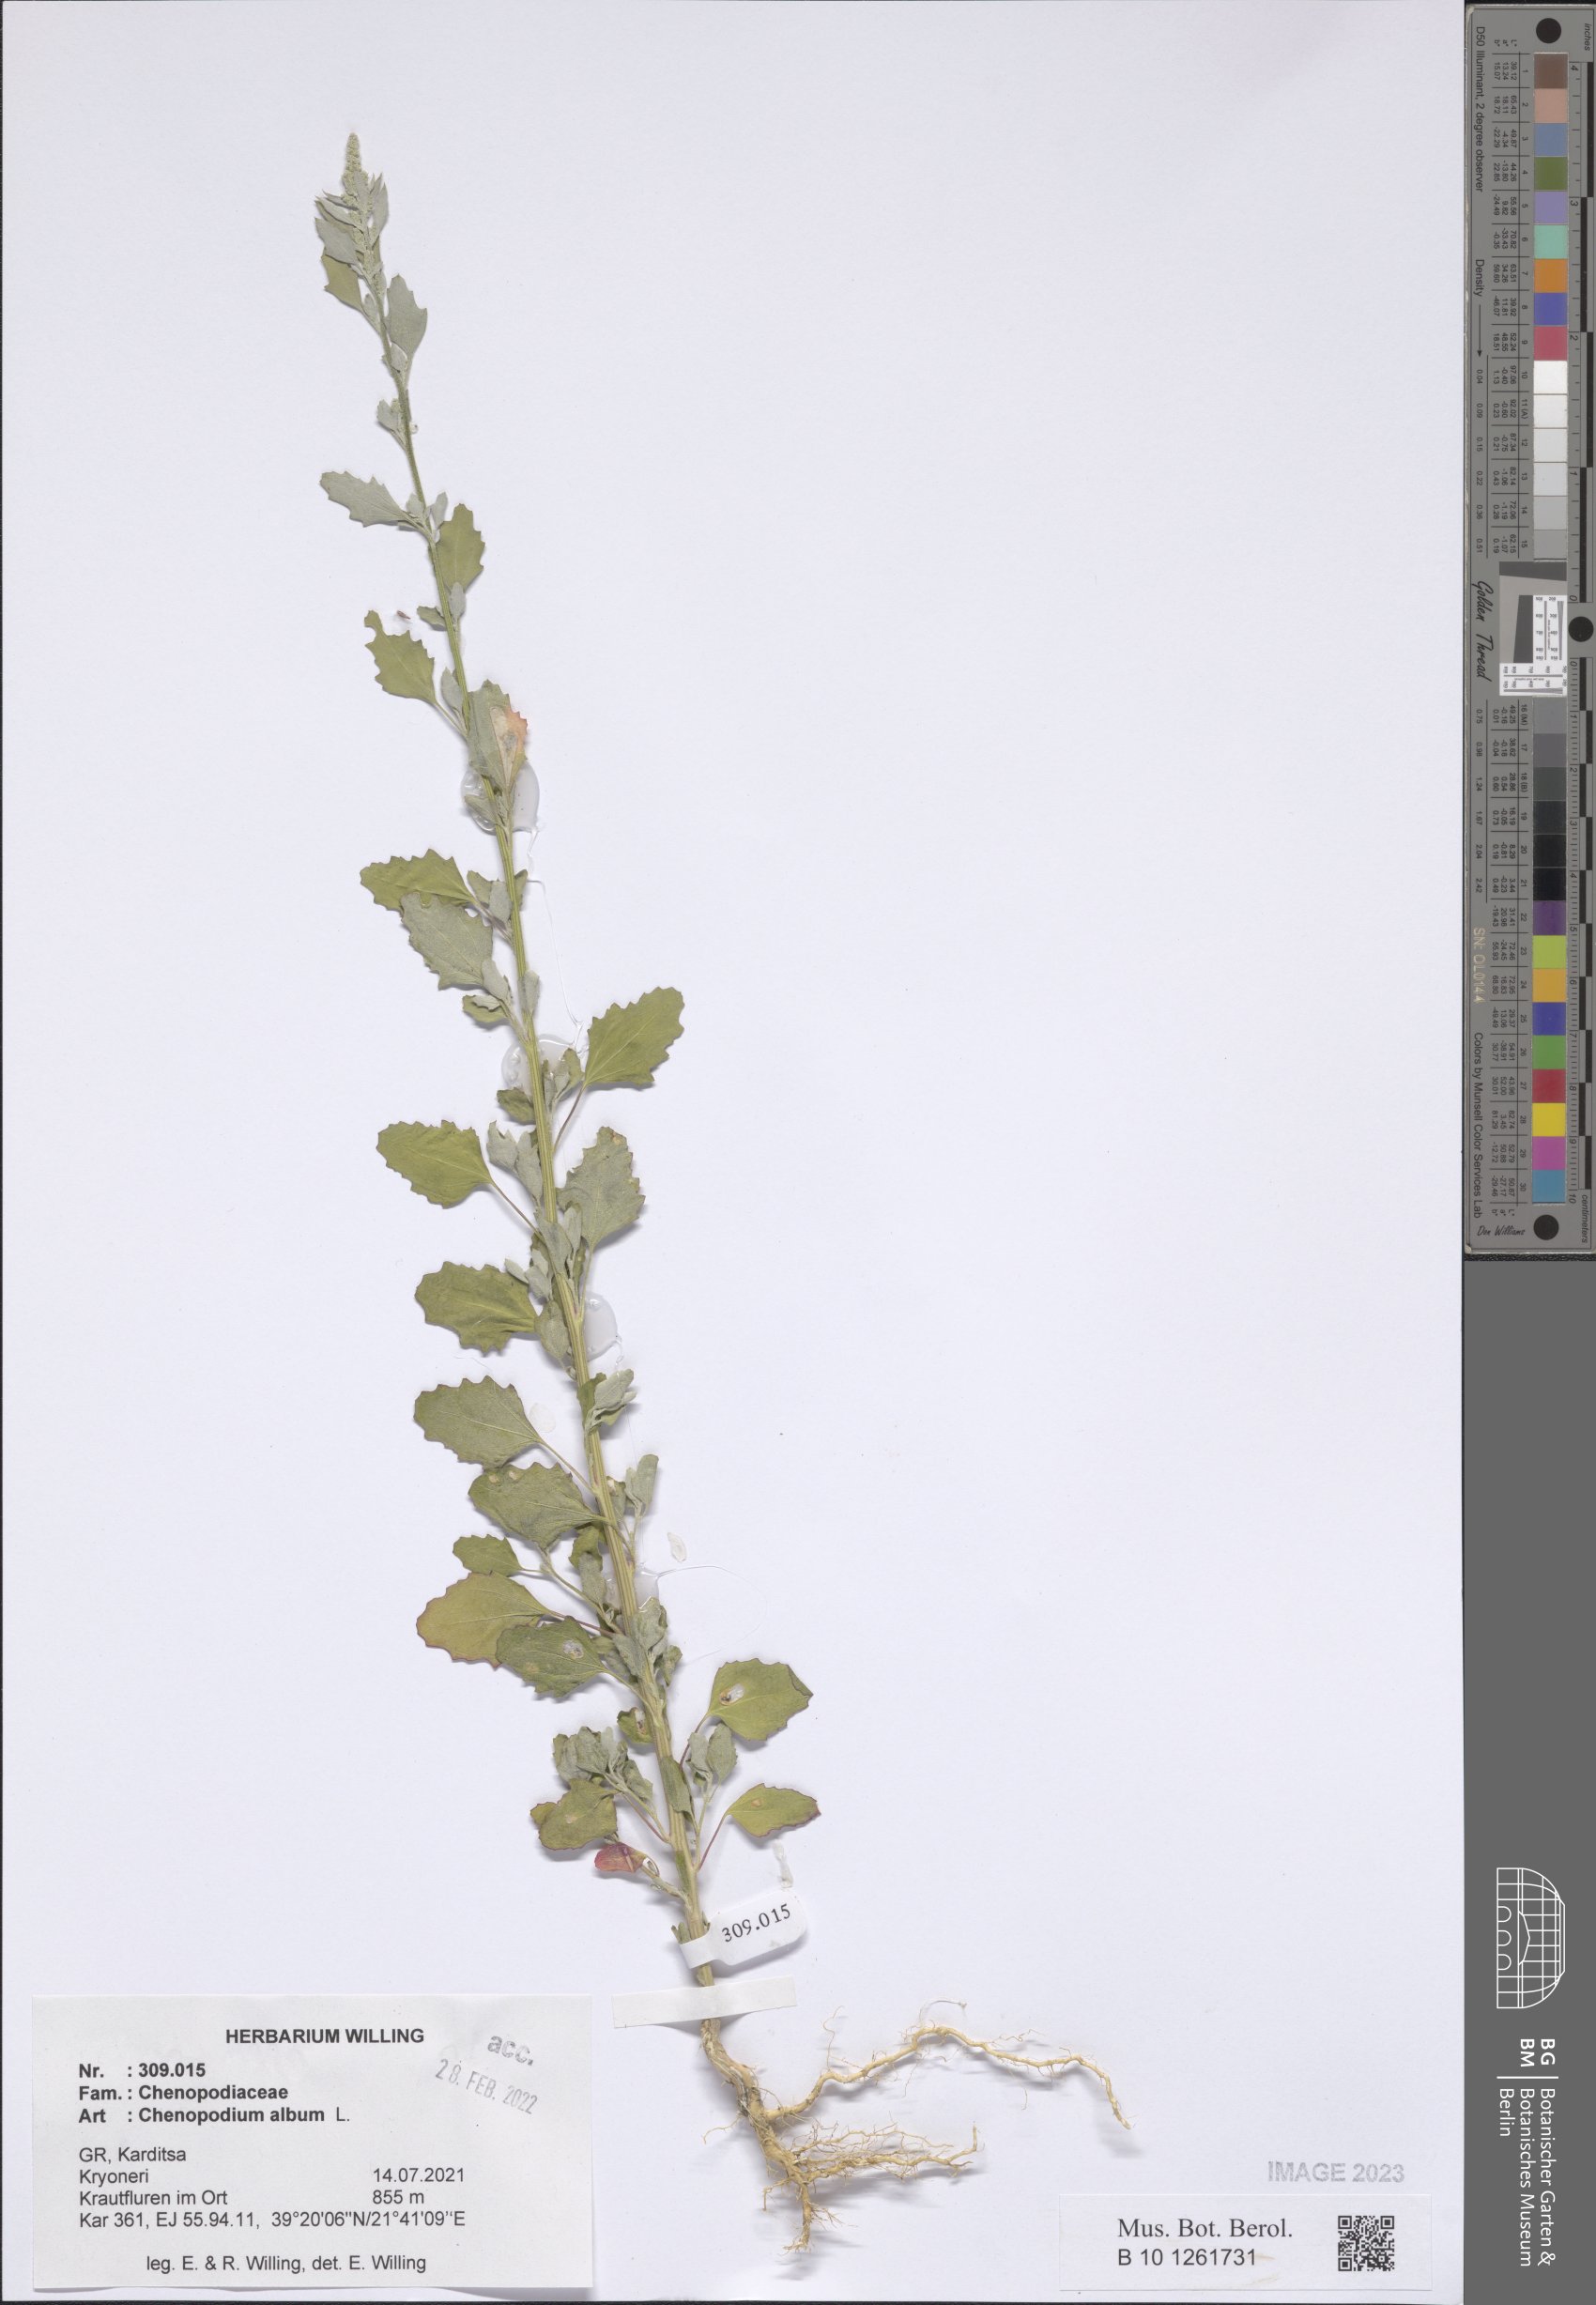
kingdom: Plantae
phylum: Tracheophyta
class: Magnoliopsida
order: Caryophyllales
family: Amaranthaceae
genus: Chenopodium
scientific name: Chenopodium album
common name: Fat-hen
